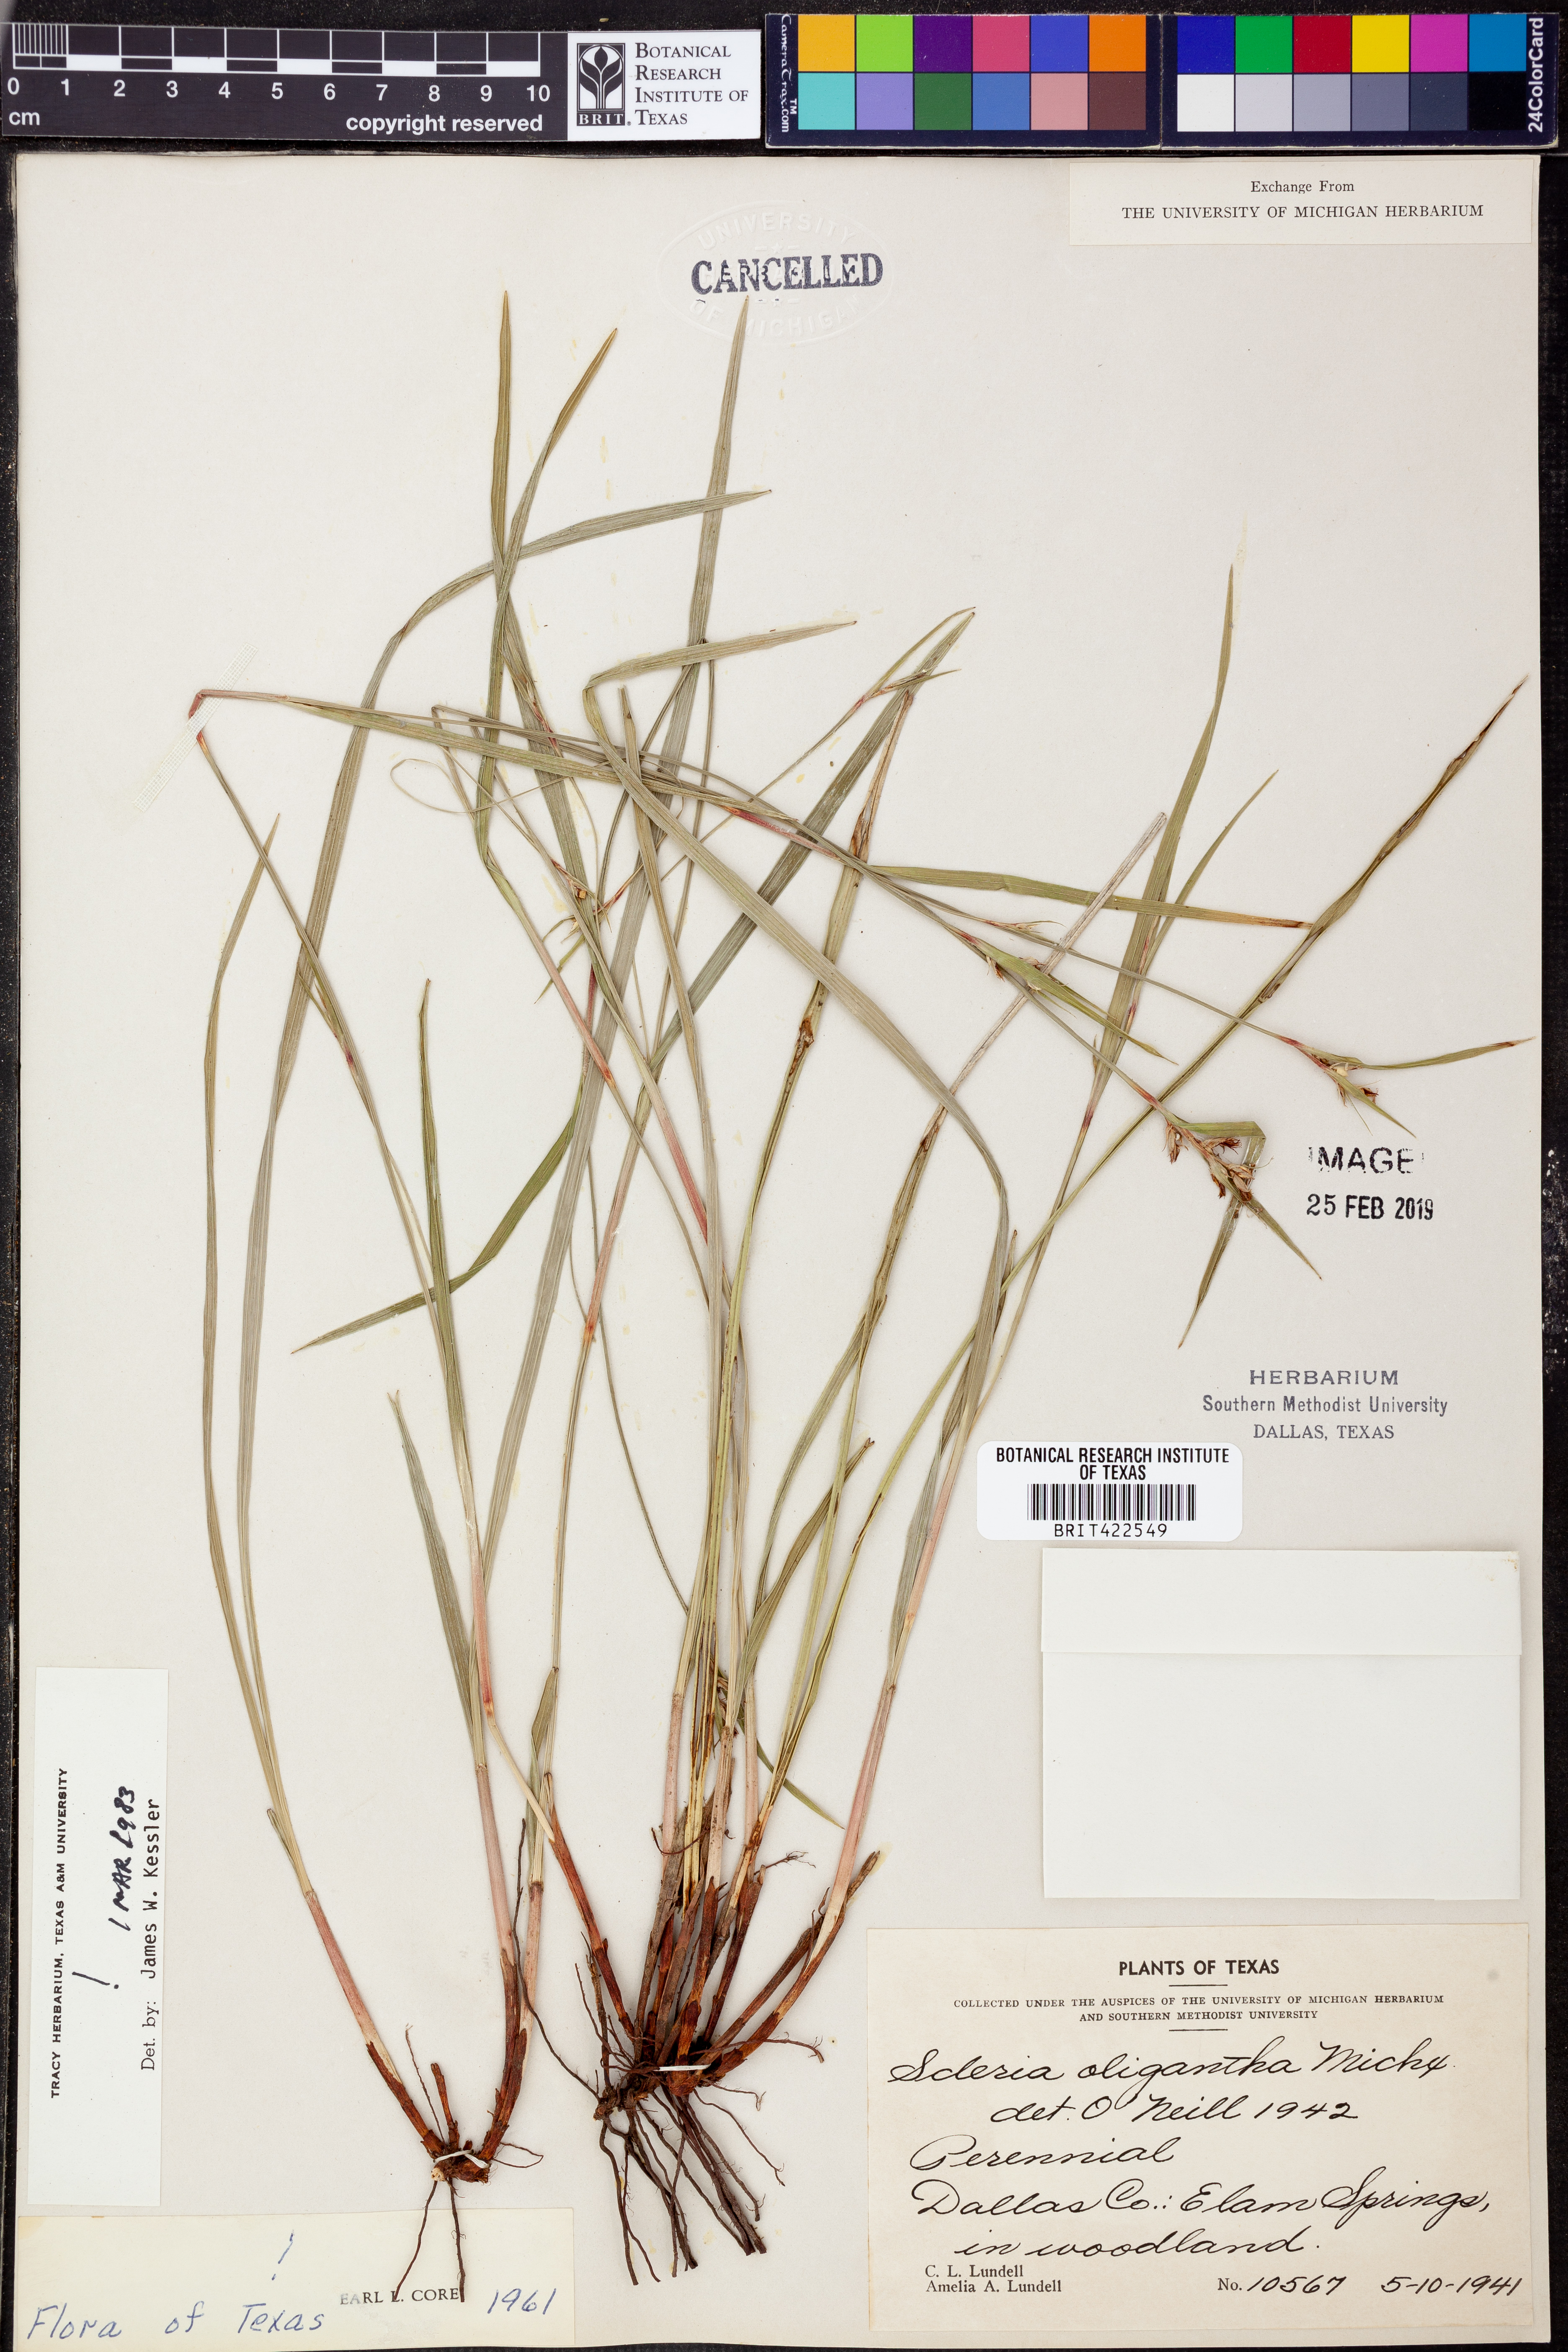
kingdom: Plantae
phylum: Tracheophyta
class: Liliopsida
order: Poales
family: Cyperaceae
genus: Scleria
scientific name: Scleria oligantha
